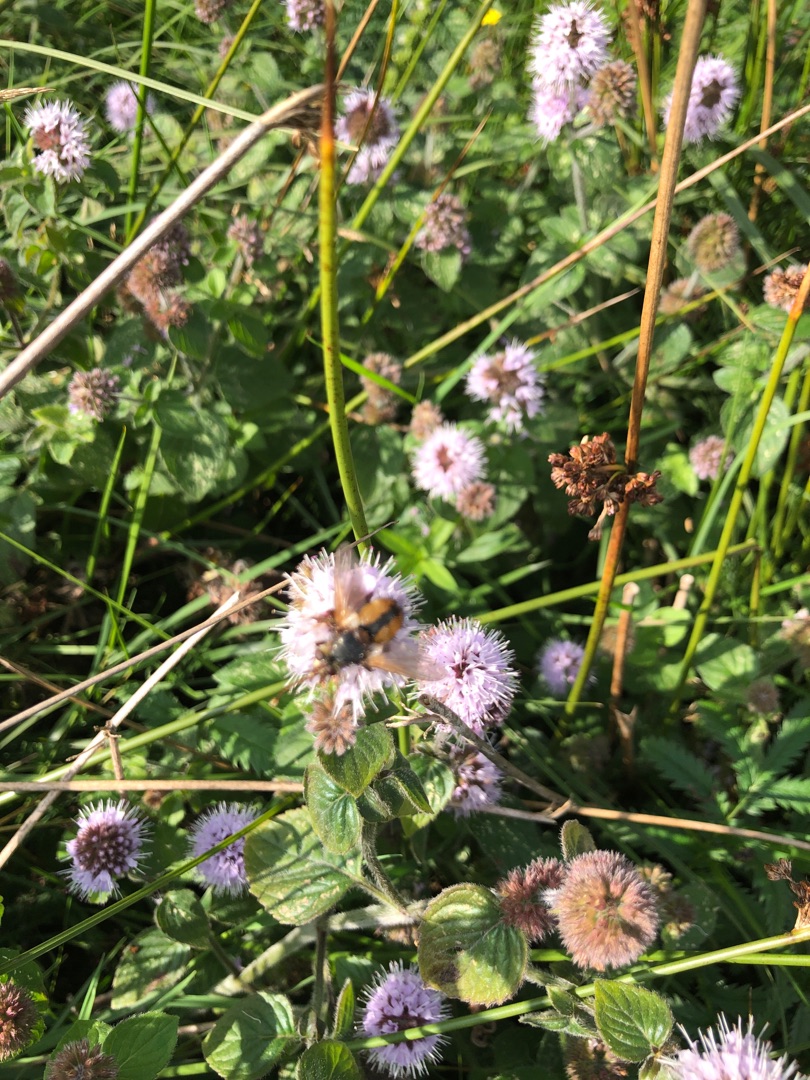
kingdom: Plantae
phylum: Tracheophyta
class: Magnoliopsida
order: Lamiales
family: Lamiaceae
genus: Mentha
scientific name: Mentha aquatica
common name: Vand-mynte
